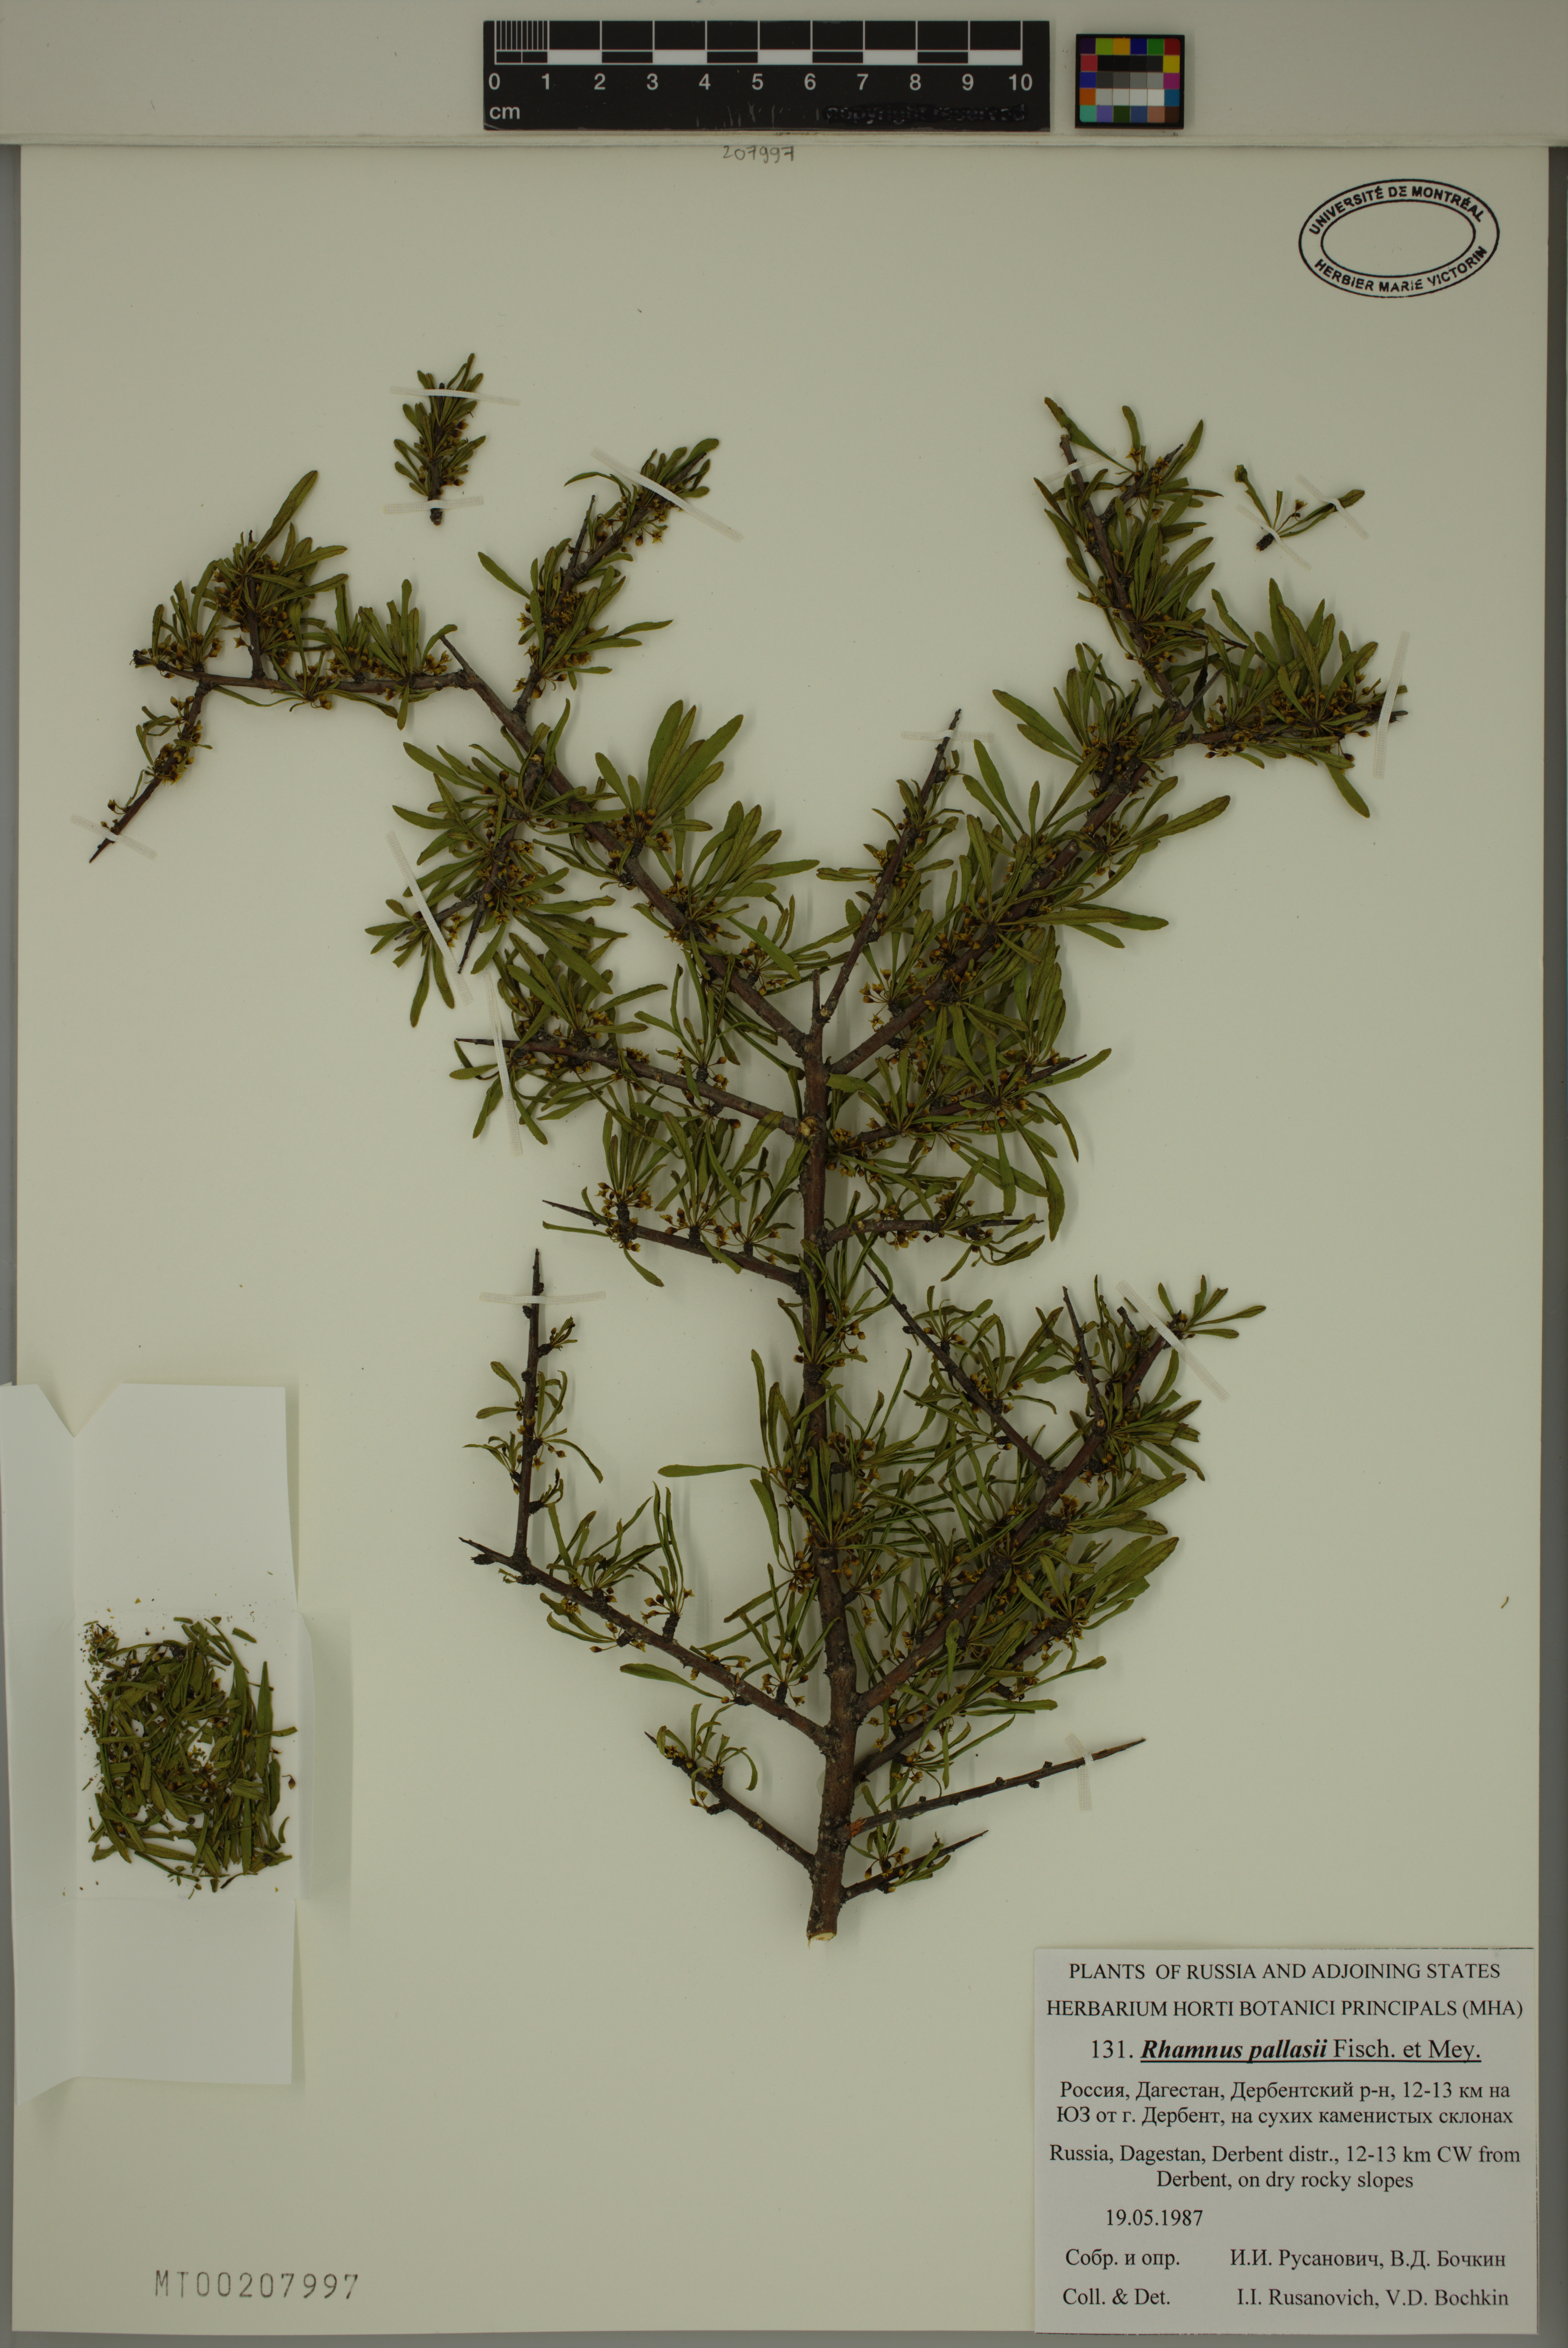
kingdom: Plantae
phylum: Tracheophyta
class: Magnoliopsida
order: Rosales
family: Rhamnaceae
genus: Rhamnus
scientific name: Rhamnus erythroxyloides
